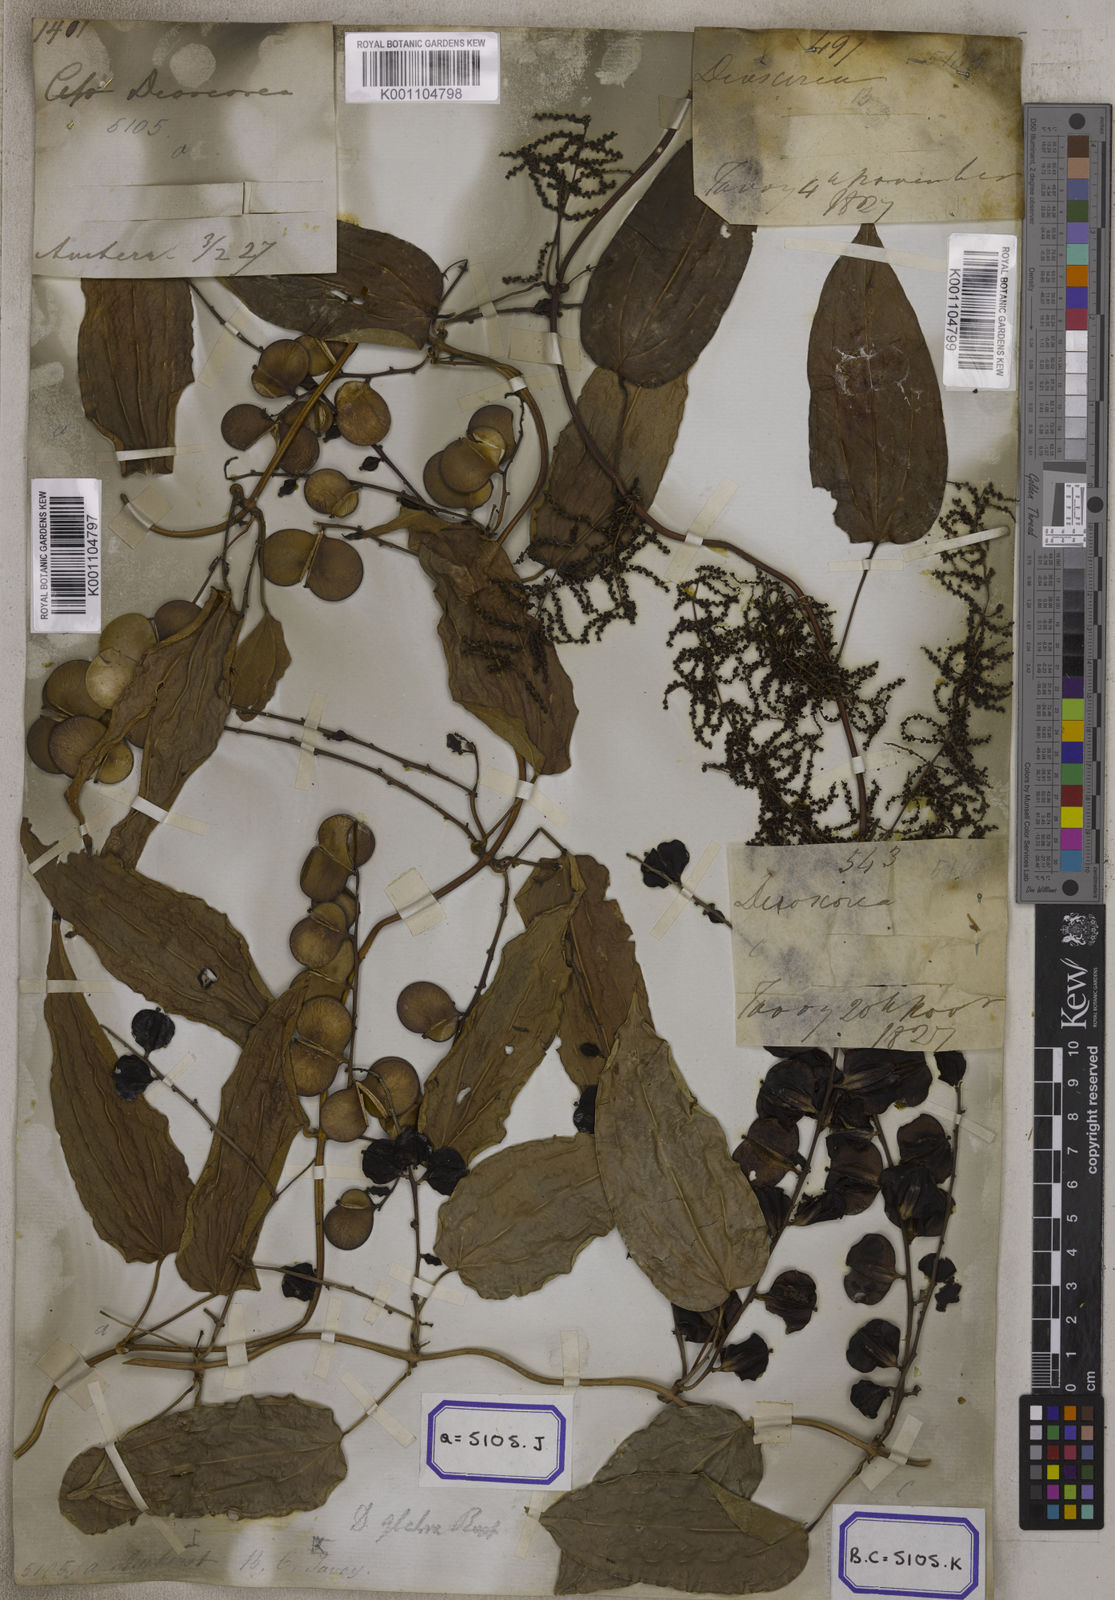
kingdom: Plantae
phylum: Tracheophyta
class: Liliopsida
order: Dioscoreales
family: Dioscoreaceae
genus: Dioscorea
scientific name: Dioscorea glabra
